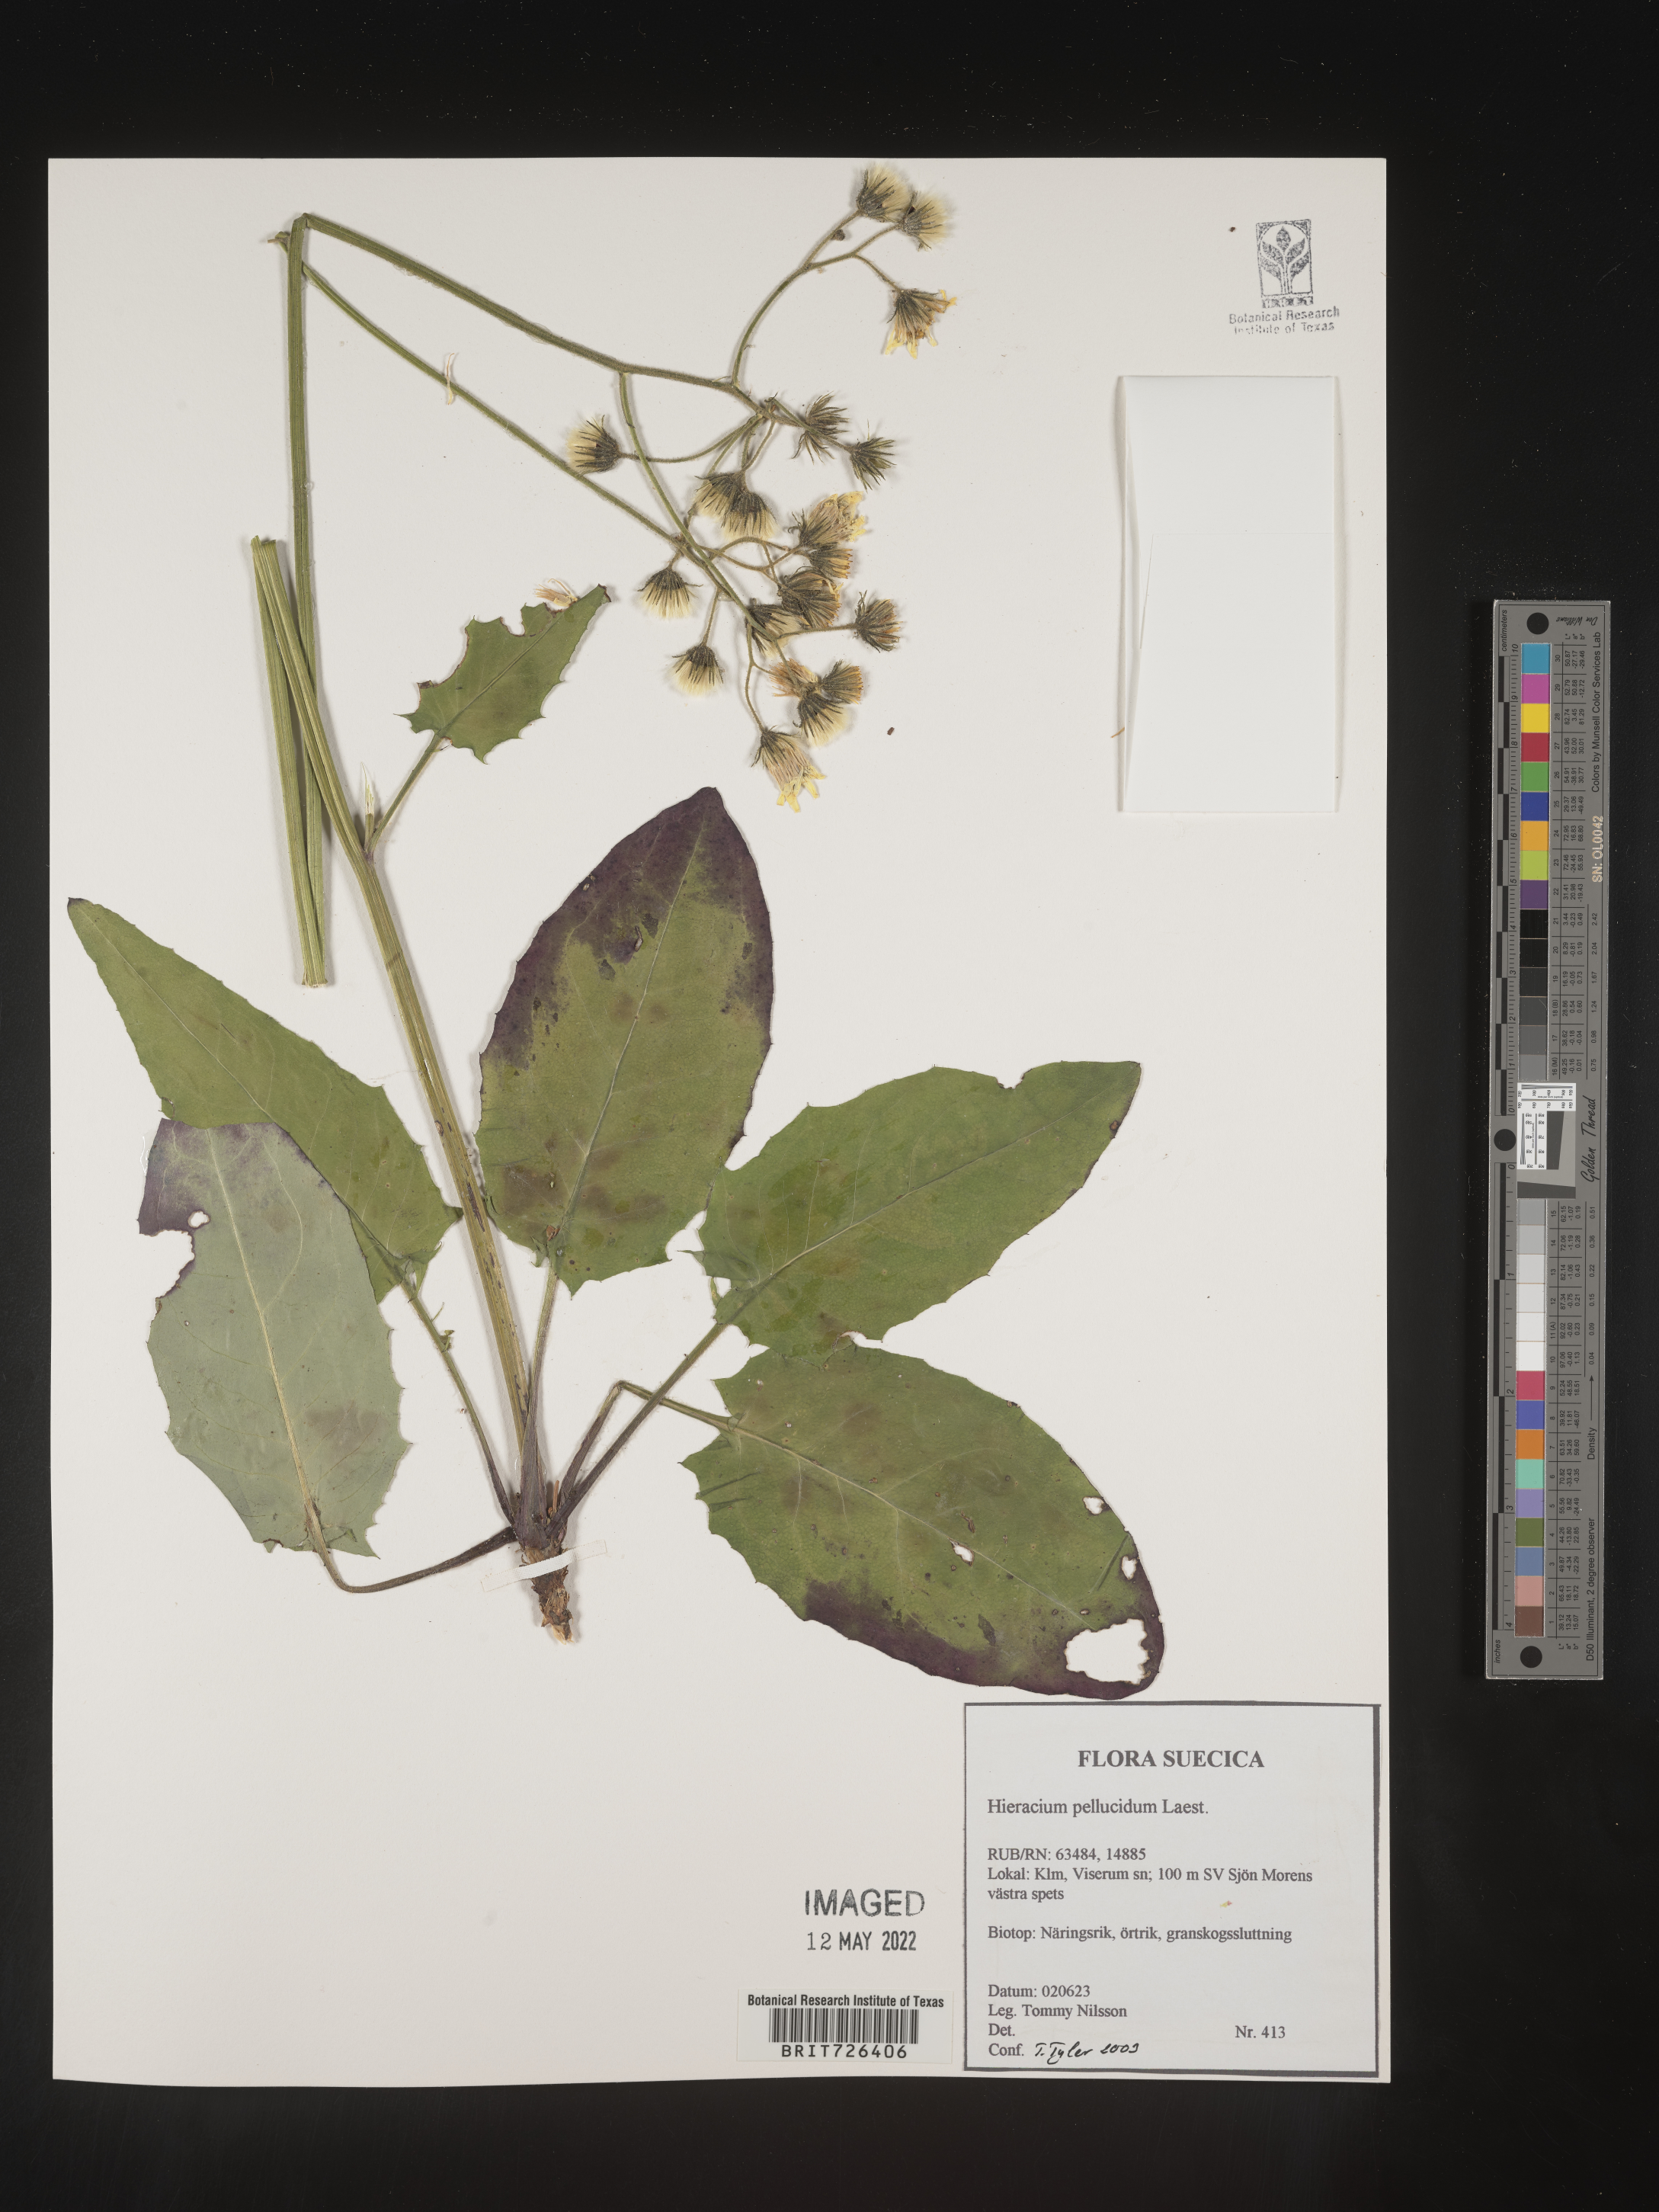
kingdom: Plantae
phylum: Tracheophyta
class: Magnoliopsida
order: Asterales
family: Asteraceae
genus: Hieracium
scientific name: Hieracium
